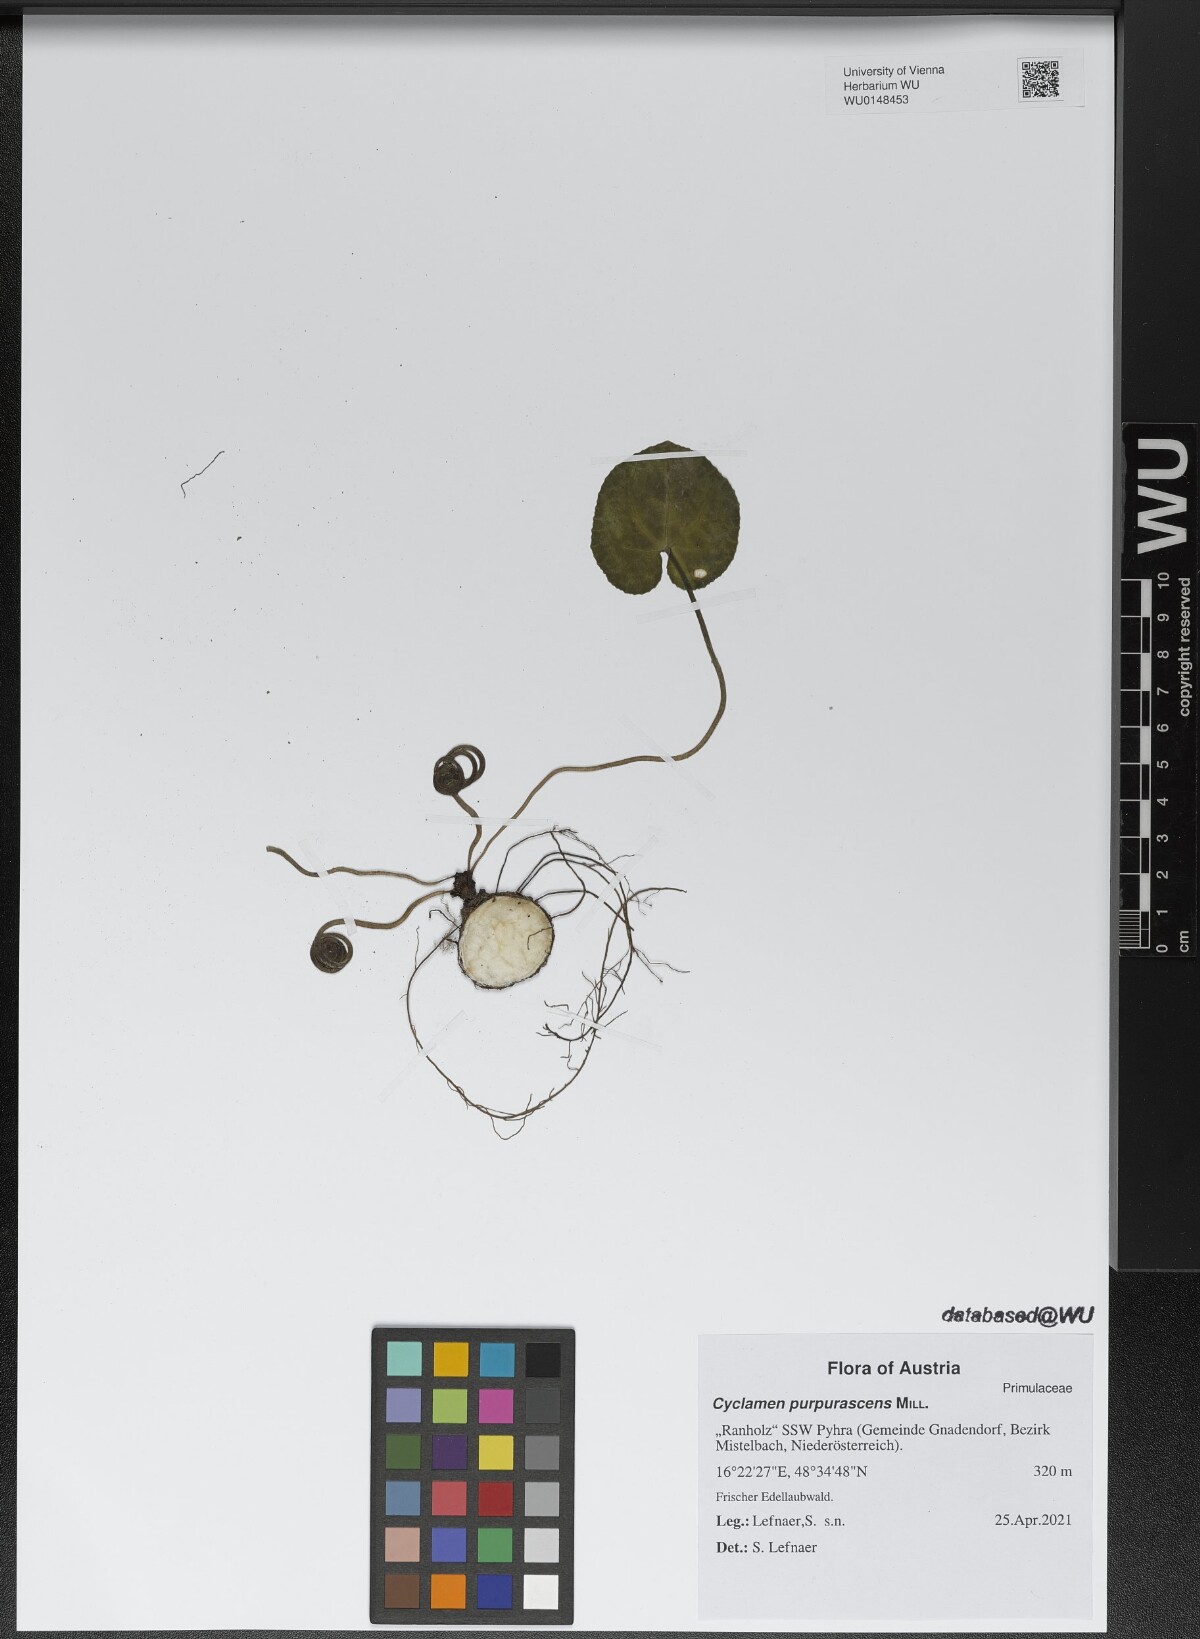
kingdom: Plantae
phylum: Tracheophyta
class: Magnoliopsida
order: Ericales
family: Primulaceae
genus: Cyclamen
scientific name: Cyclamen purpurascens
